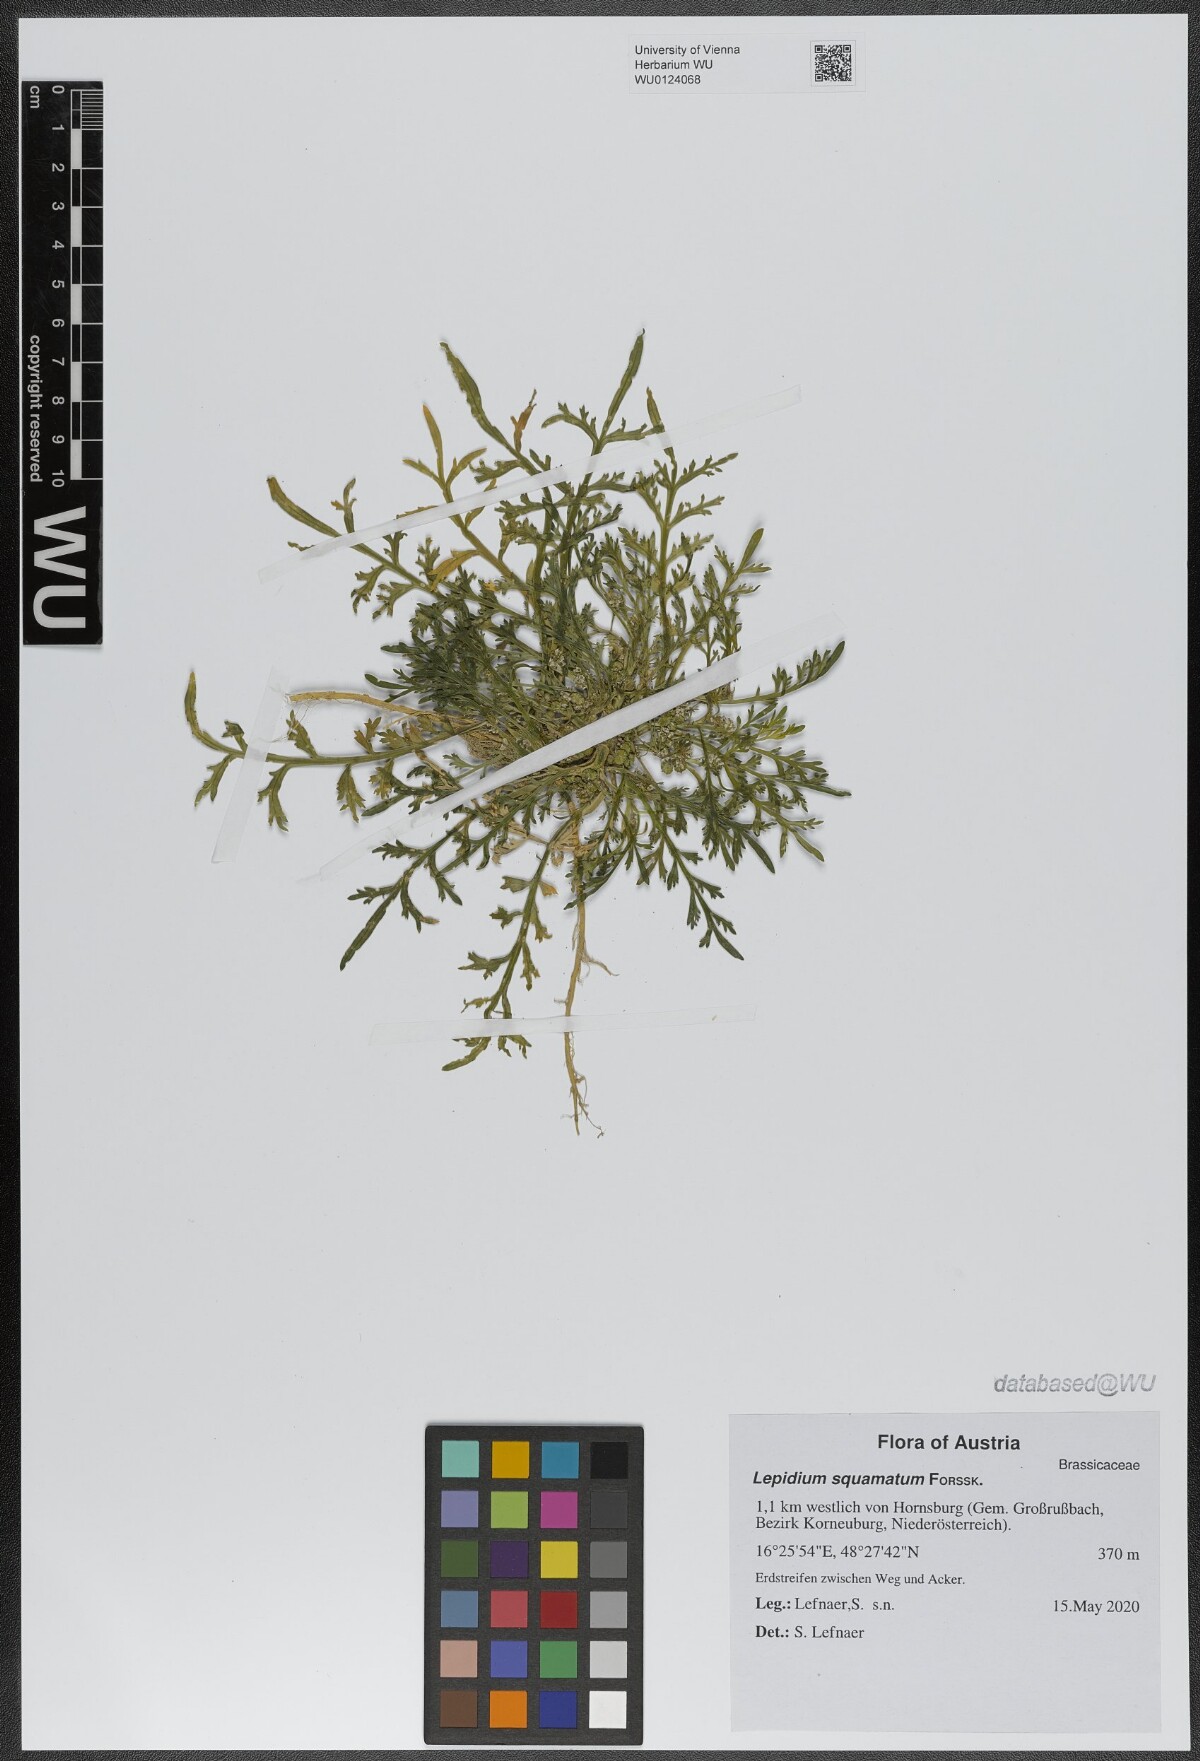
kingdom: Plantae
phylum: Tracheophyta
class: Magnoliopsida
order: Brassicales
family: Brassicaceae
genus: Lepidium
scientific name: Lepidium coronopus
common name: Greater swinecress
